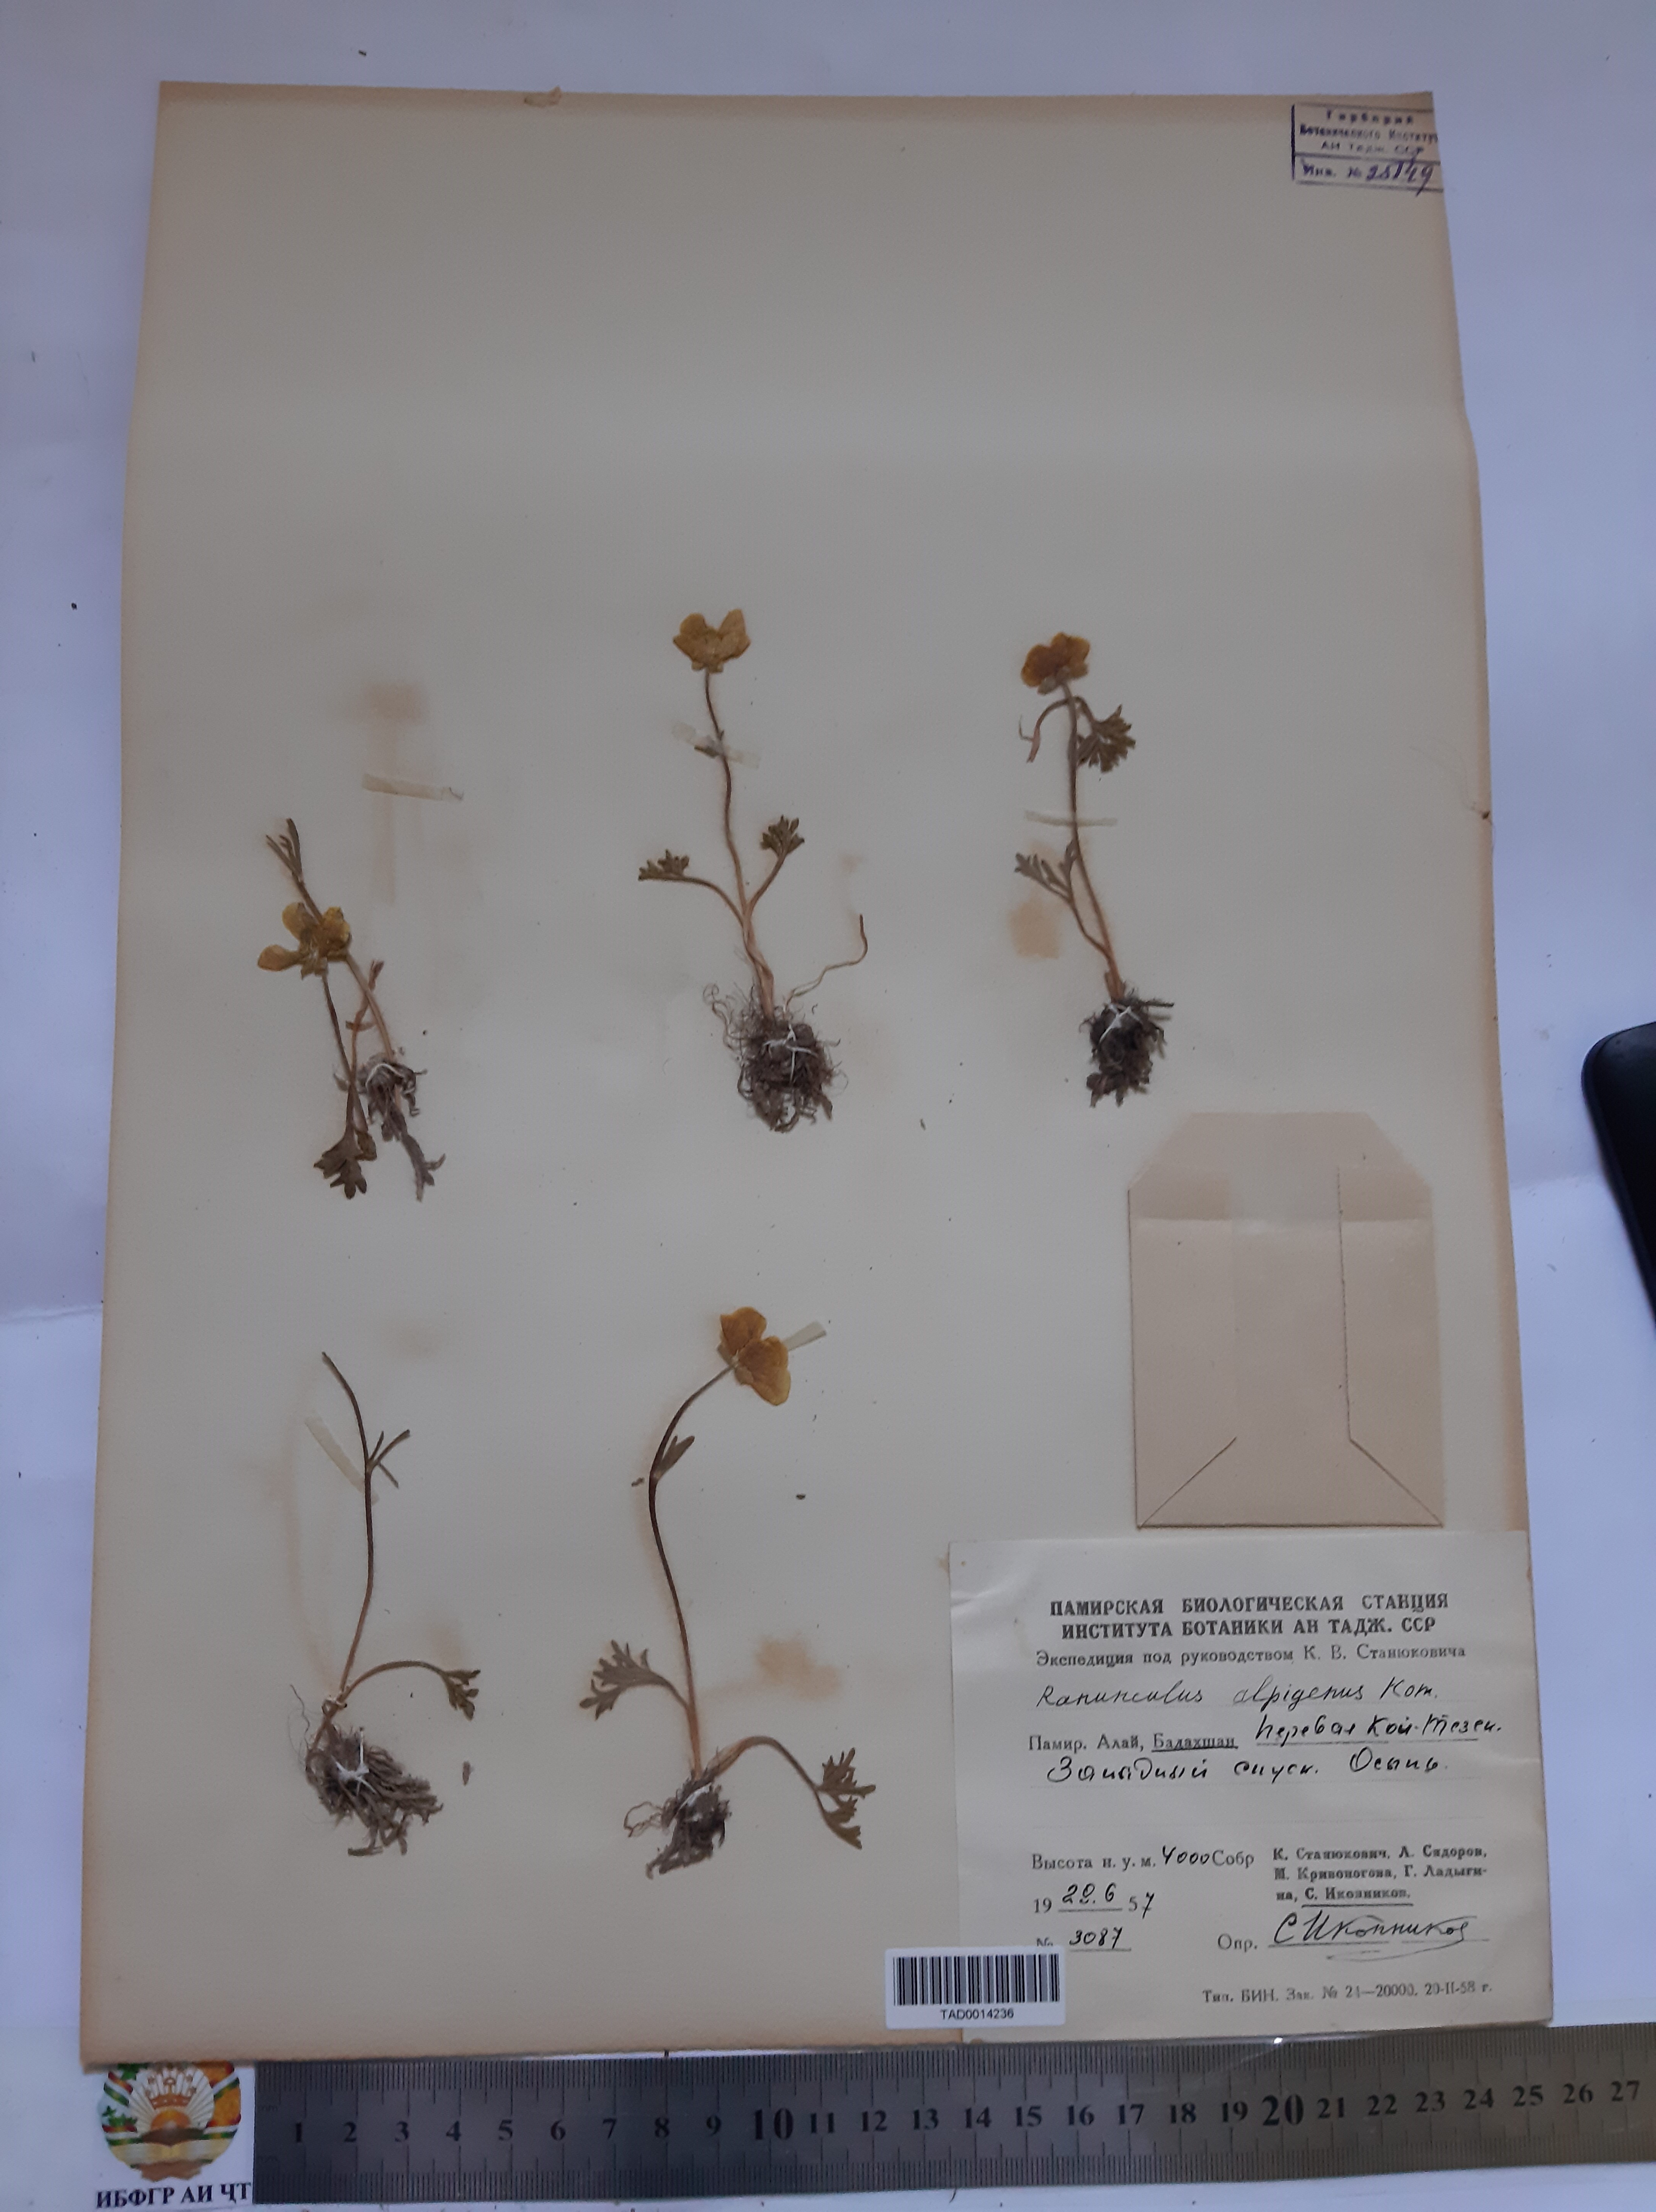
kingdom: Plantae
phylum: Tracheophyta
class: Magnoliopsida
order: Ranunculales
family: Ranunculaceae
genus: Ranunculus
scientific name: Ranunculus alpigenus
